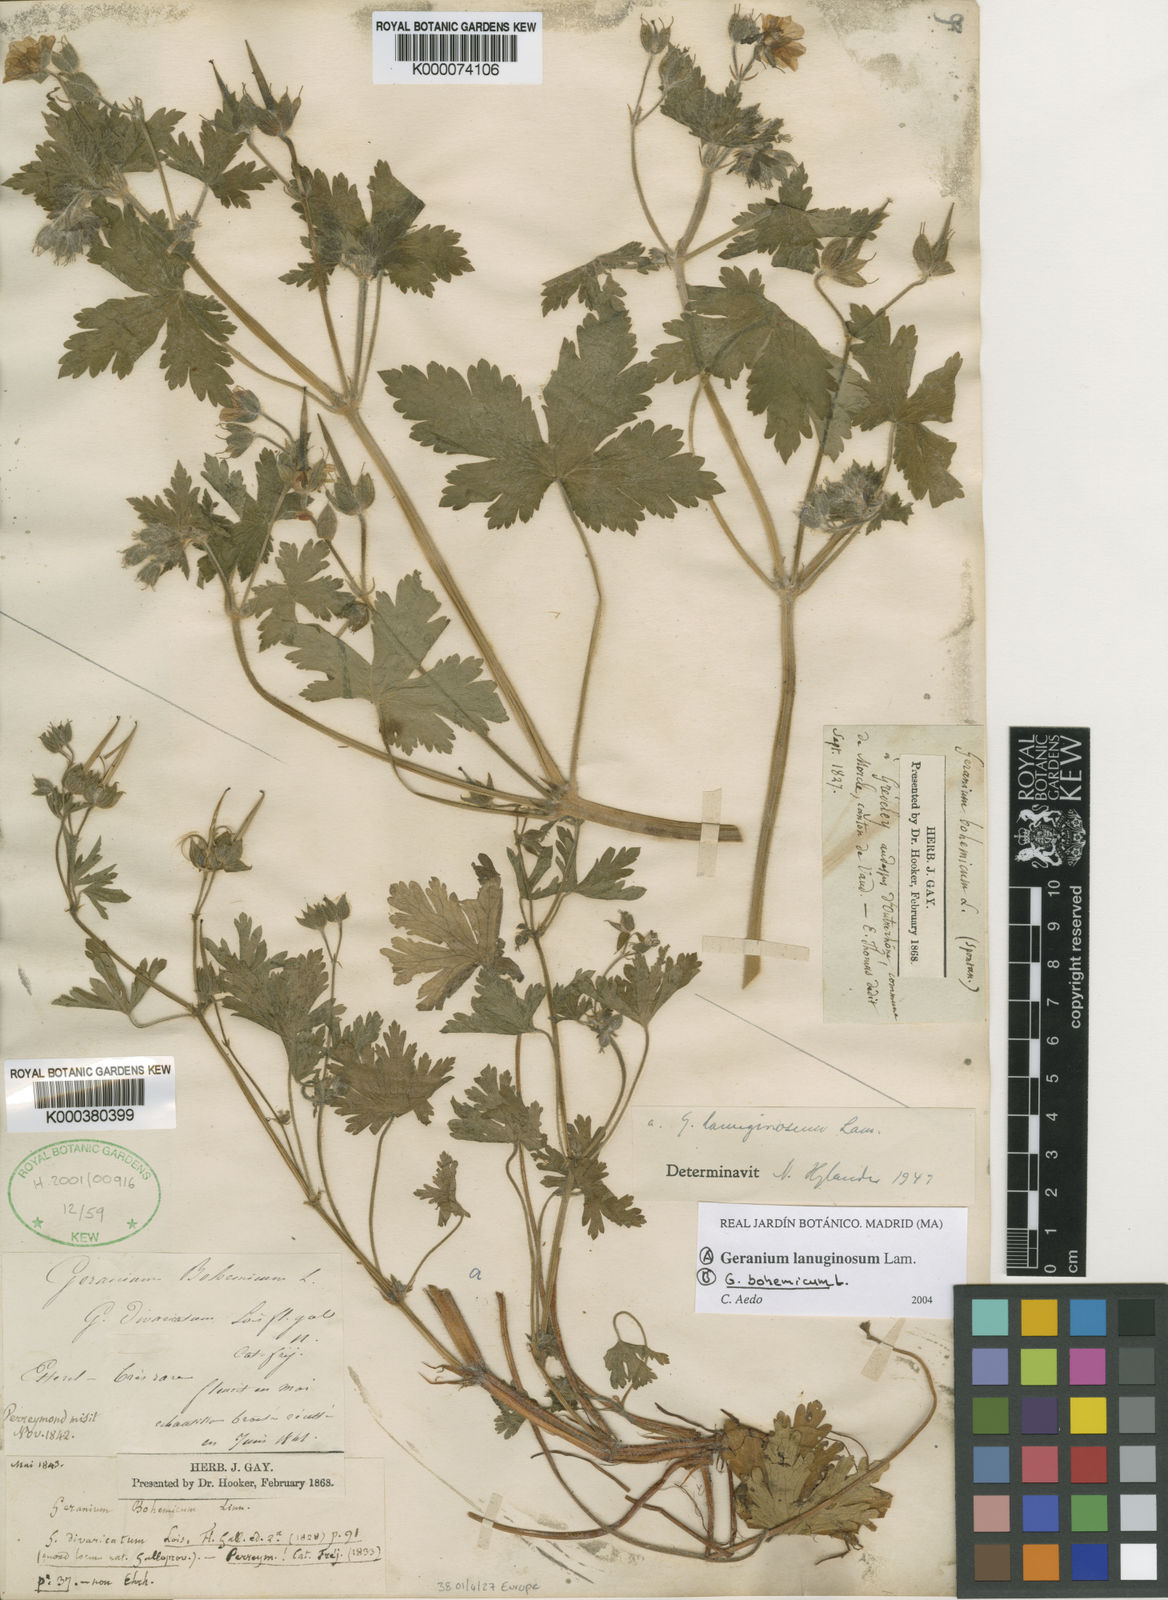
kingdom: Plantae
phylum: Tracheophyta
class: Magnoliopsida
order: Geraniales
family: Geraniaceae
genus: Geranium
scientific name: Geranium lanuginosum
